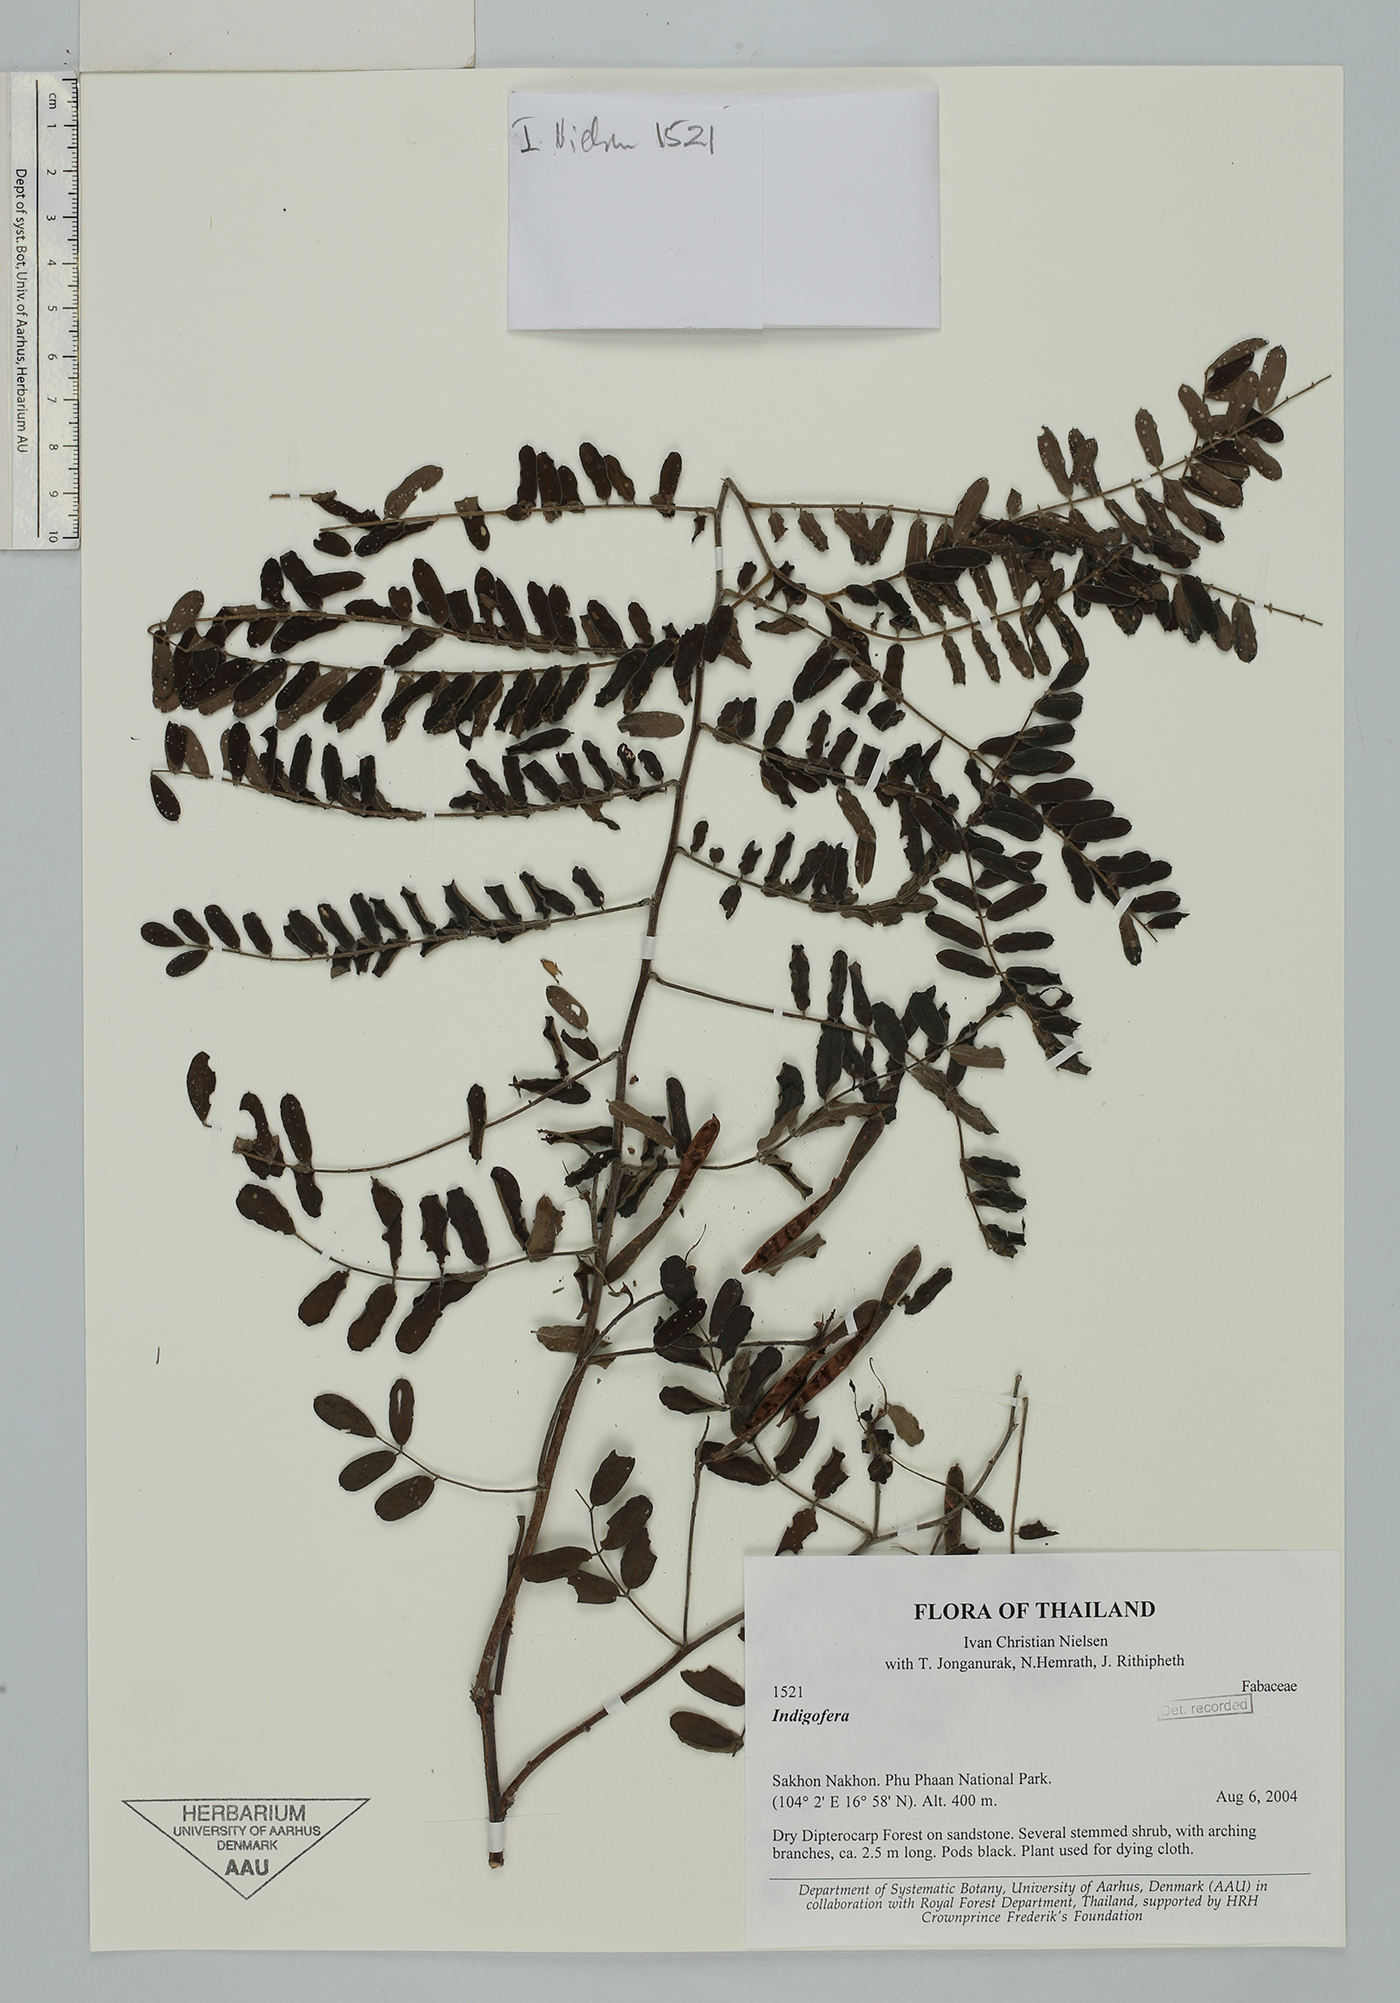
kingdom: Plantae
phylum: Tracheophyta
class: Magnoliopsida
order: Fabales
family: Fabaceae
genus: Indigofera
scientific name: Indigofera
